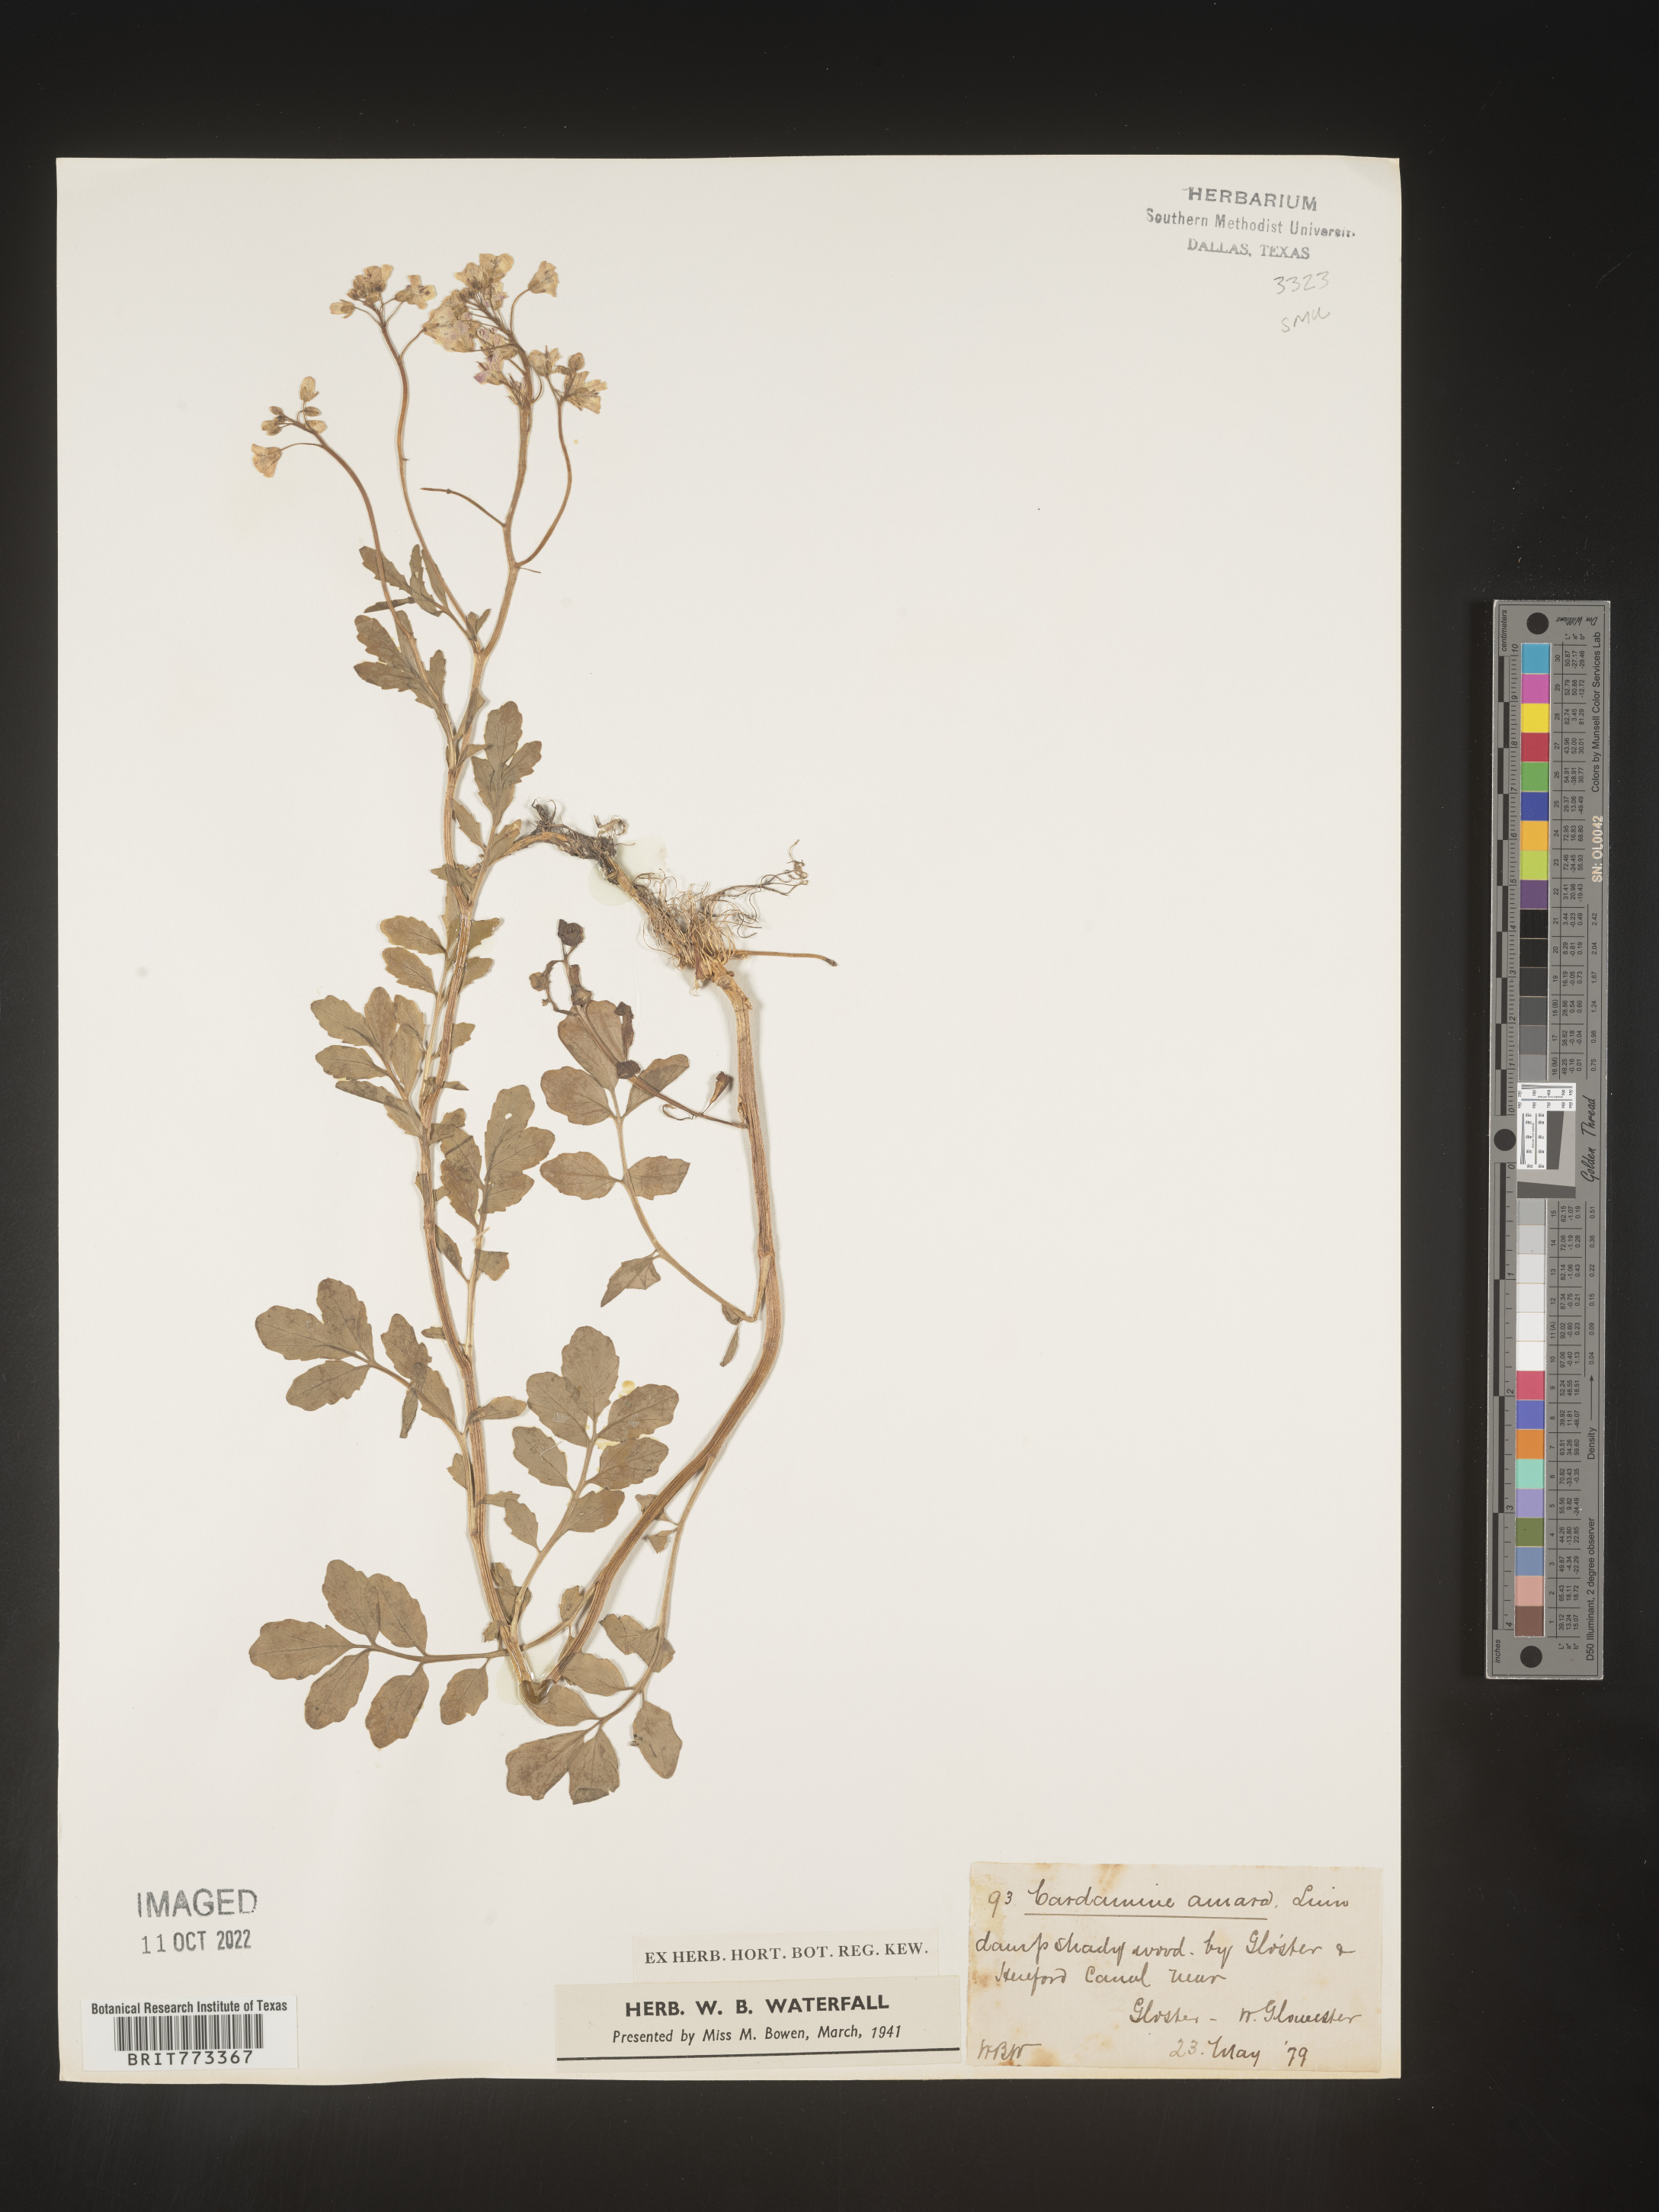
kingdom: Plantae
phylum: Tracheophyta
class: Magnoliopsida
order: Brassicales
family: Brassicaceae
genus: Cardamine
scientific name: Cardamine
